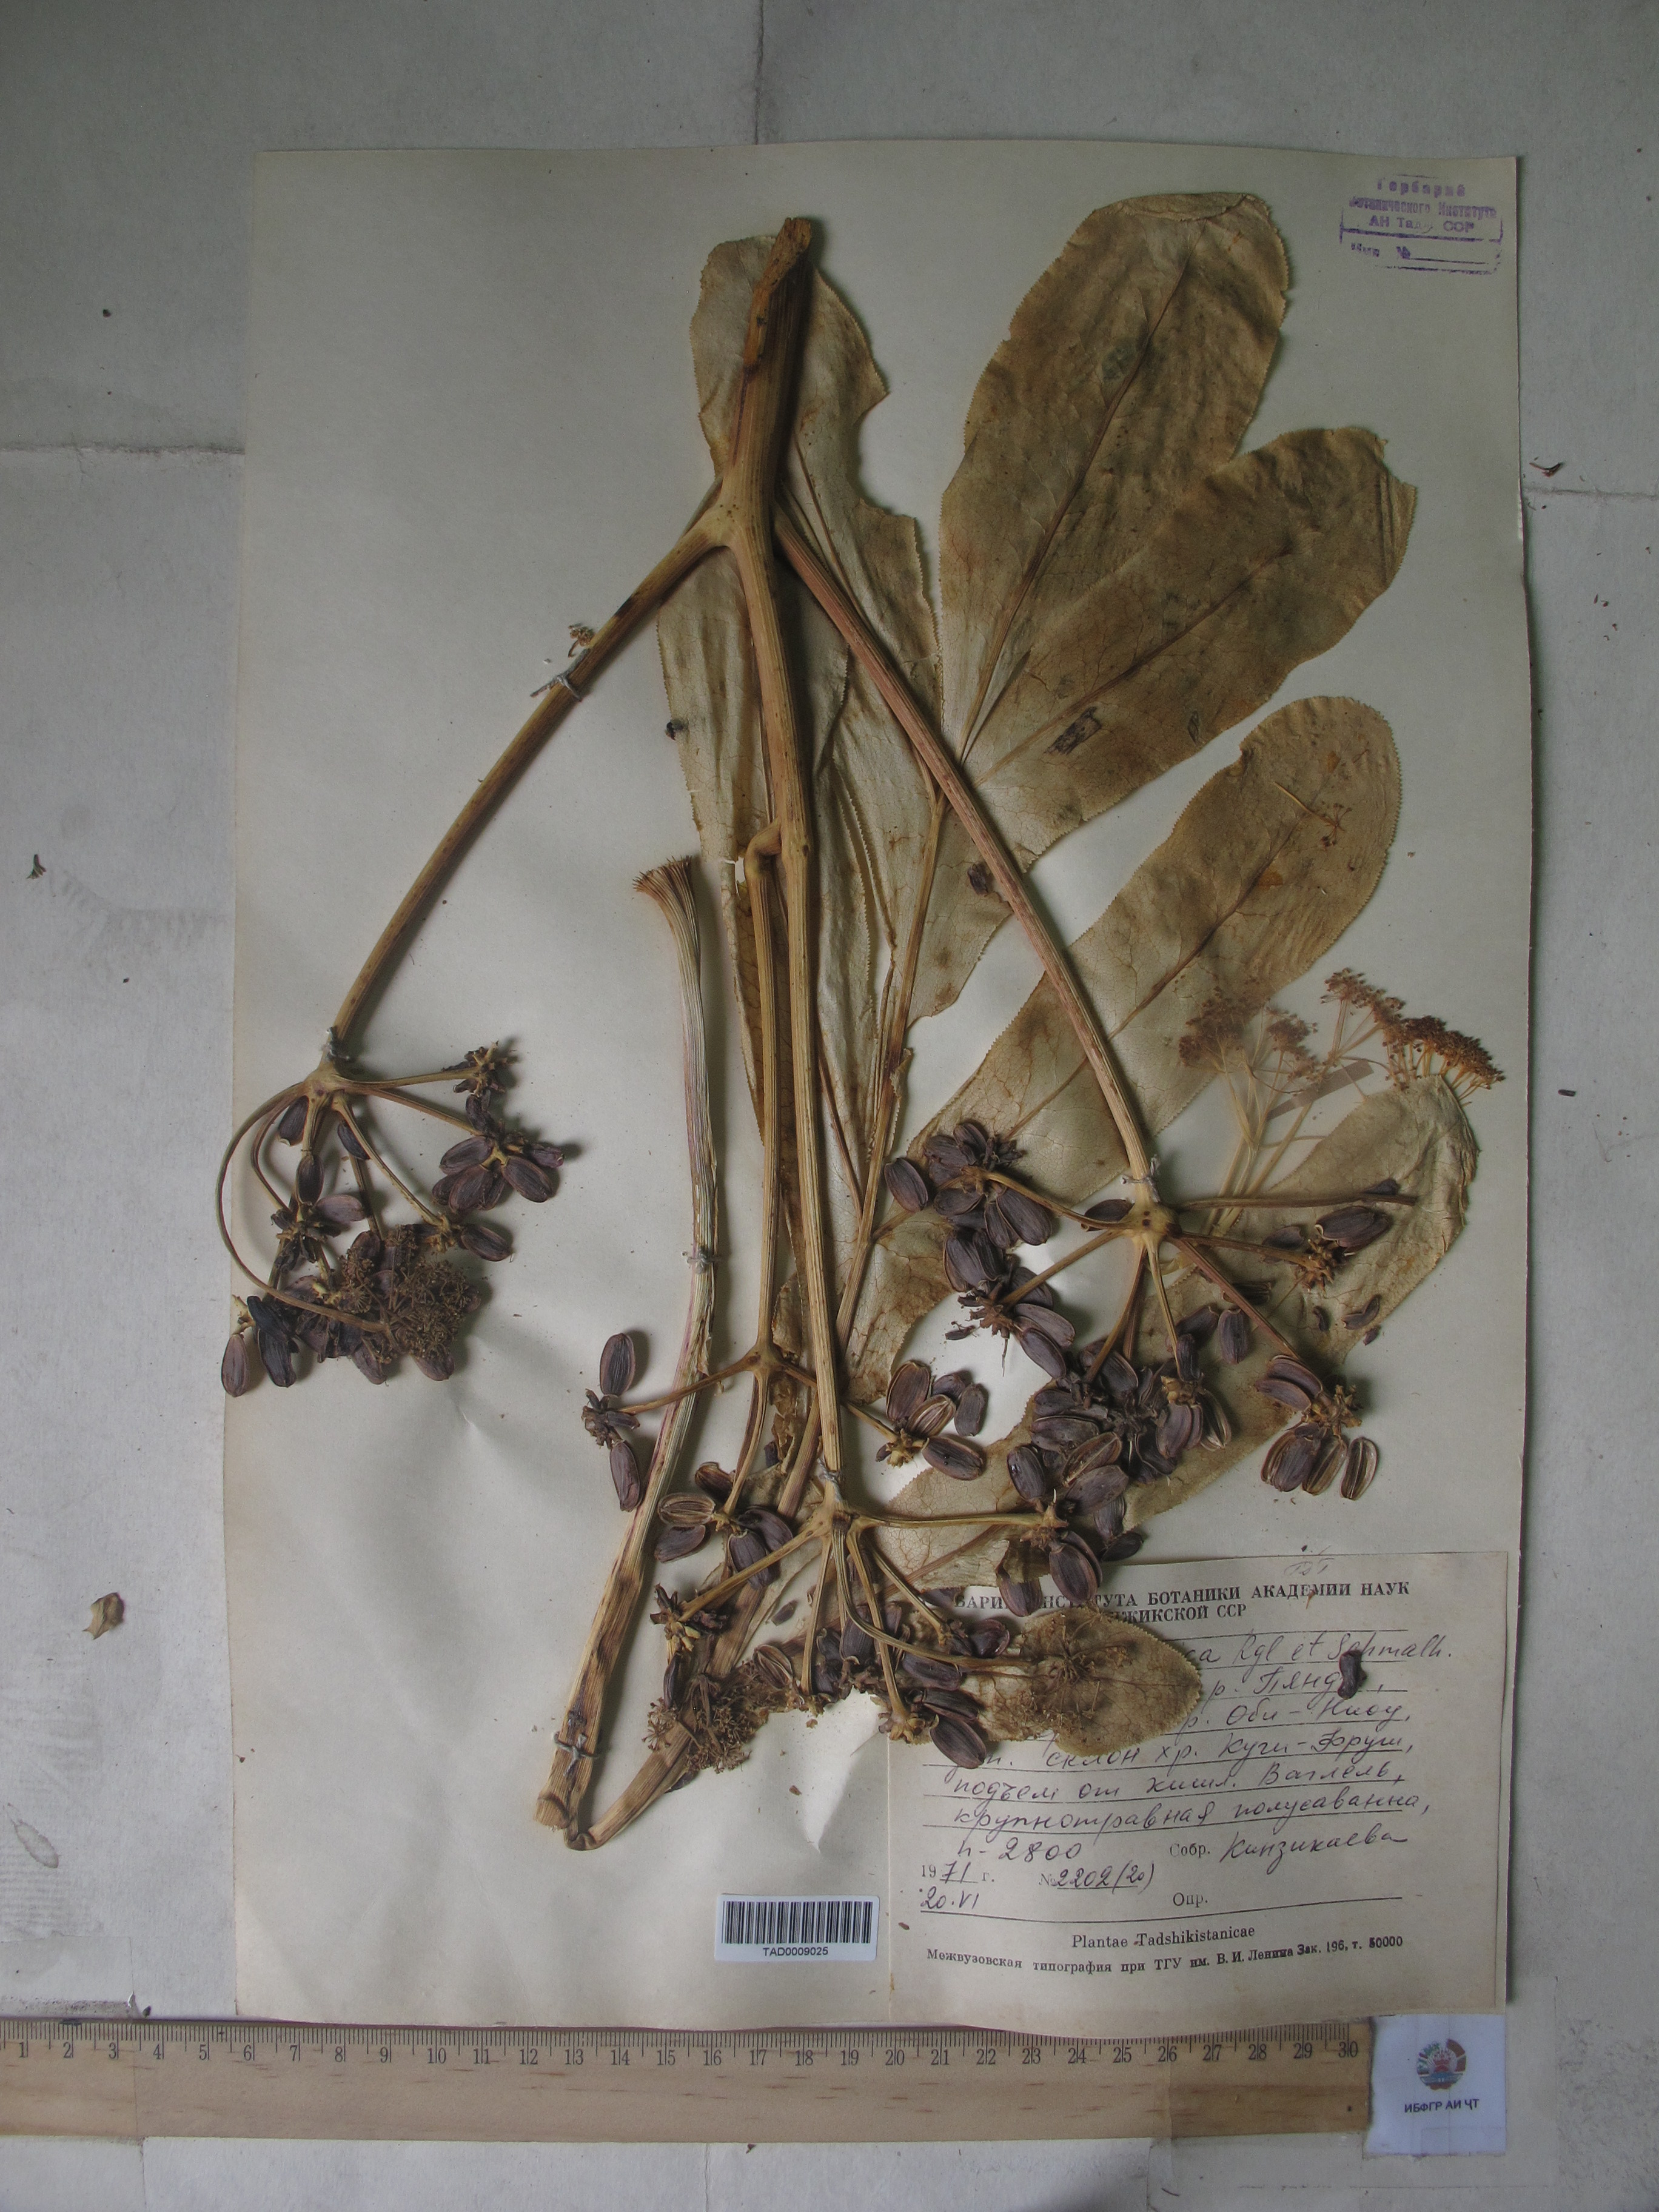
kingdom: Plantae
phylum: Tracheophyta
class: Magnoliopsida
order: Apiales
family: Apiaceae
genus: Ferula
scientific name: Ferula kokanica
